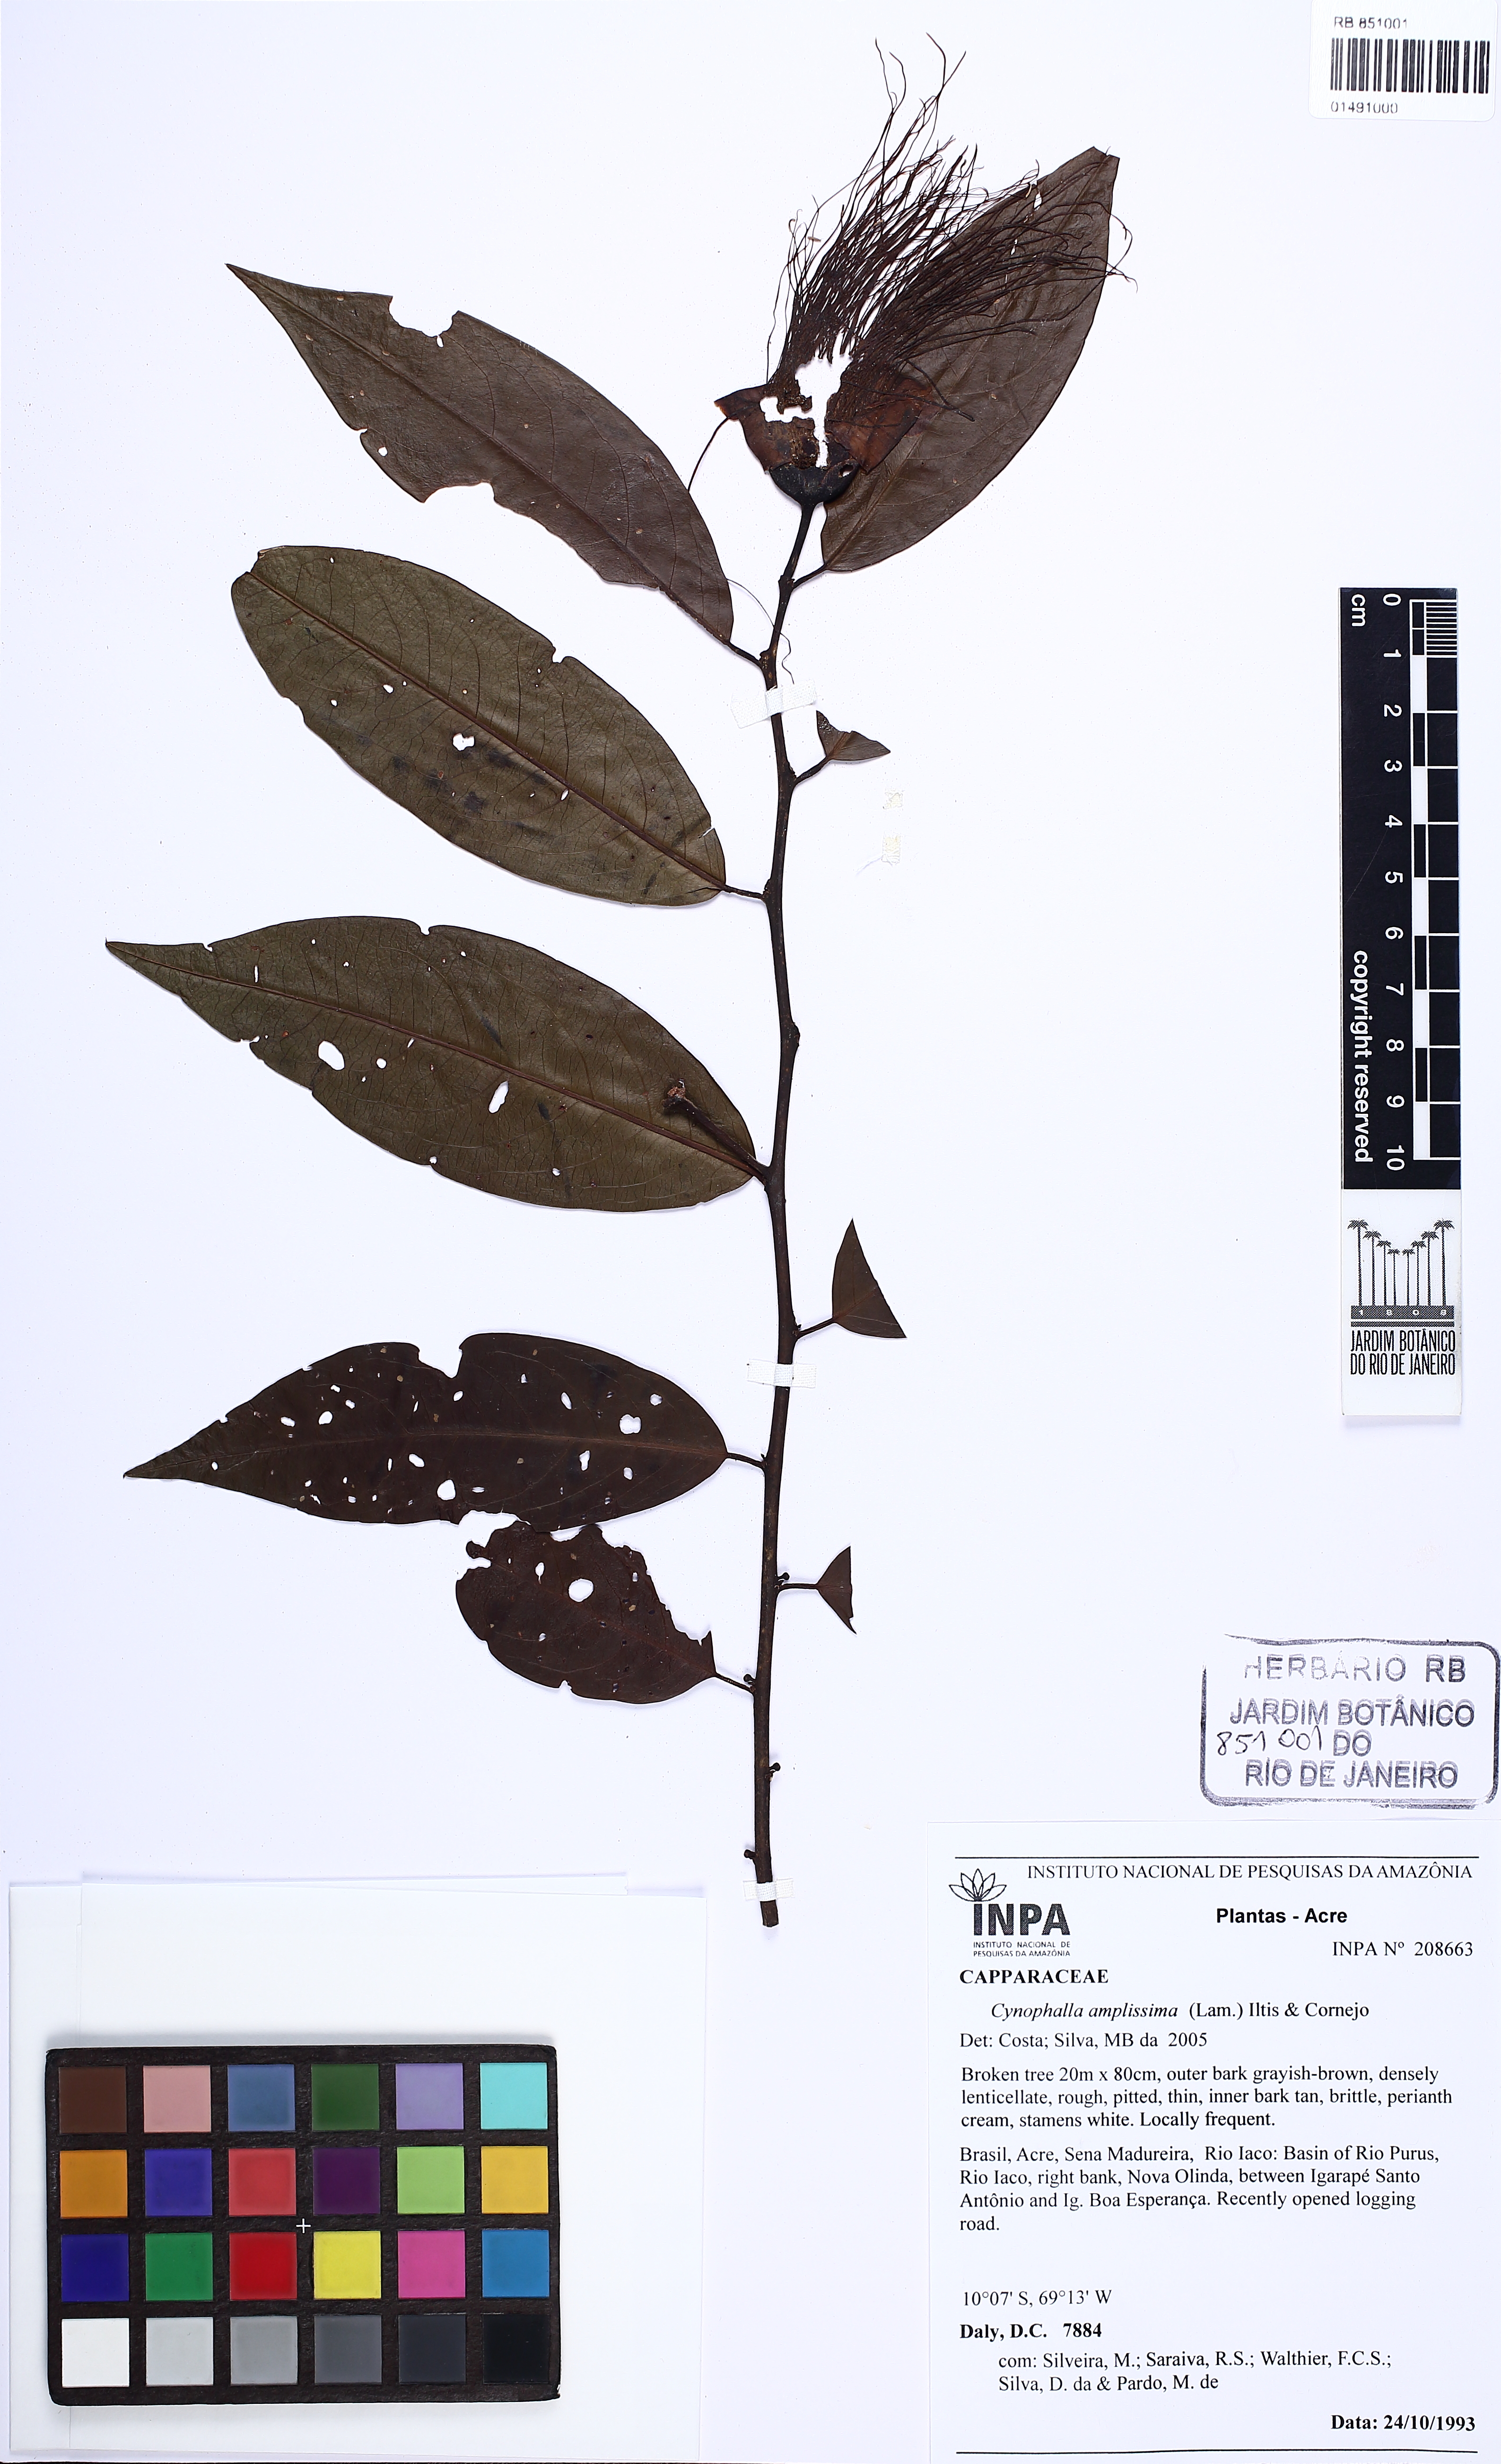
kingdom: Plantae
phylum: Tracheophyta
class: Magnoliopsida
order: Brassicales
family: Capparaceae
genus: Cynophalla
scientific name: Cynophalla amplissima
